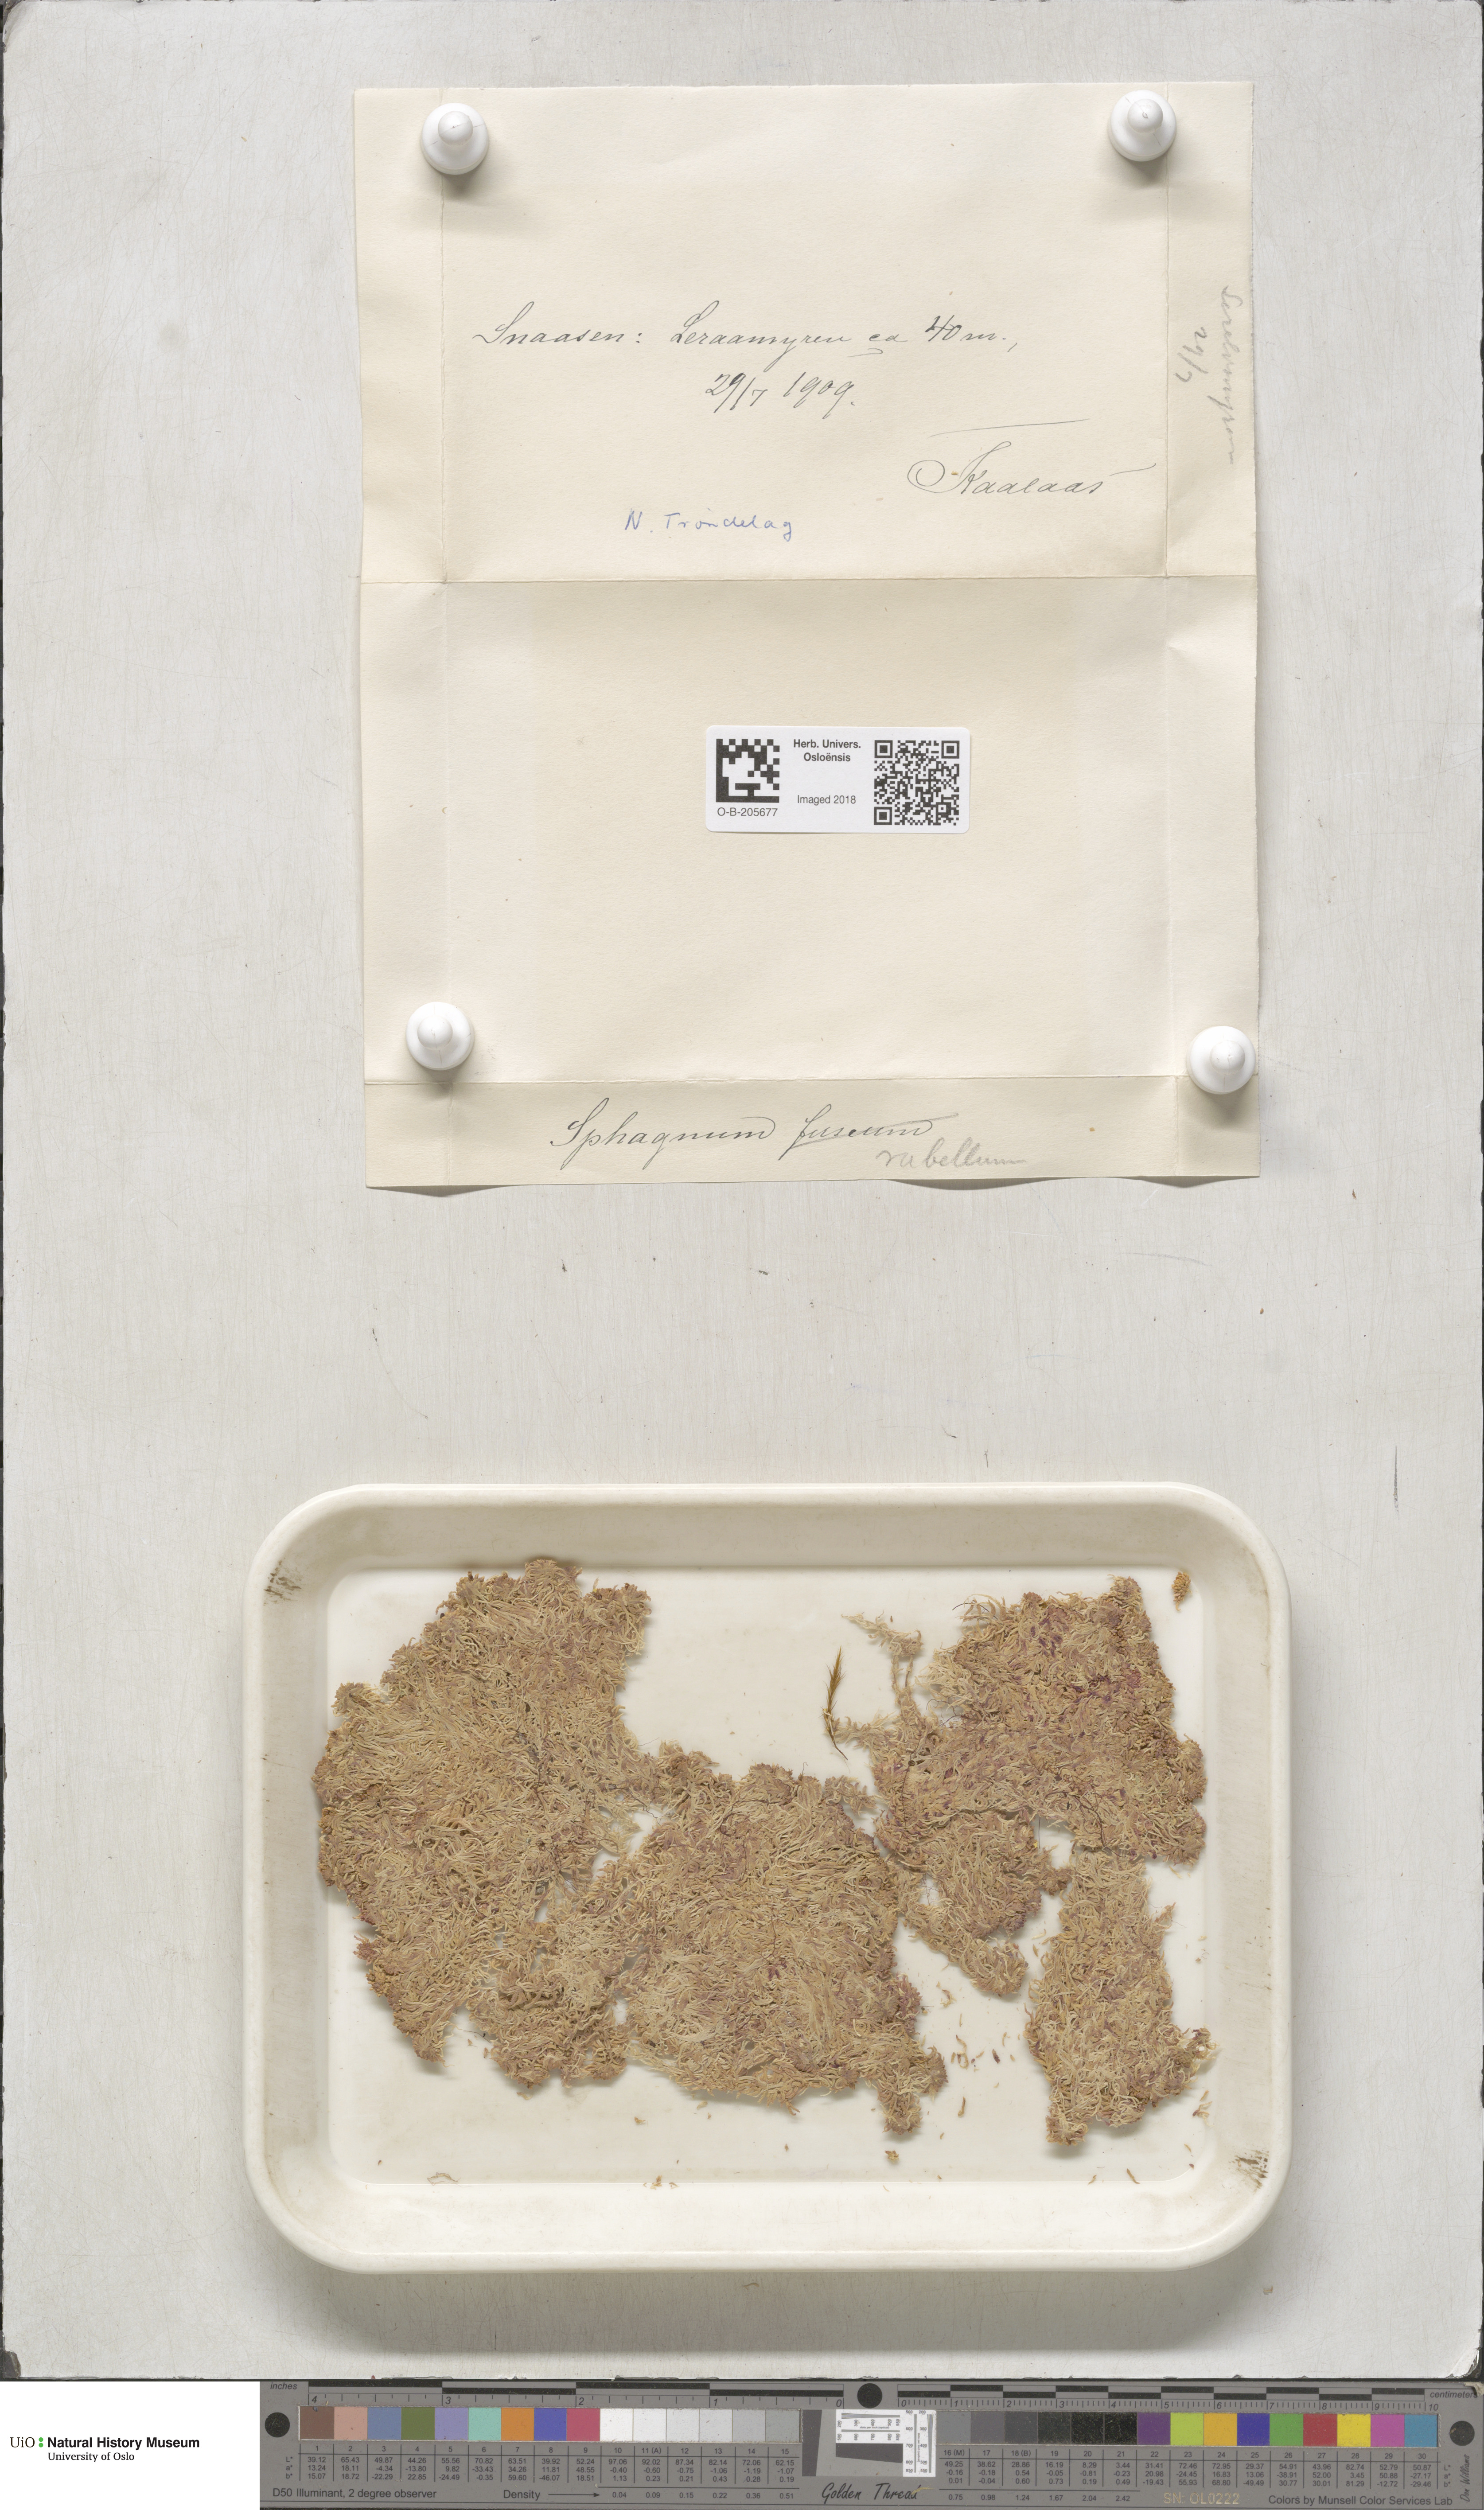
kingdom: Plantae
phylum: Bryophyta
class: Sphagnopsida
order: Sphagnales
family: Sphagnaceae
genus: Sphagnum
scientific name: Sphagnum rubellum
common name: Red peat moss
